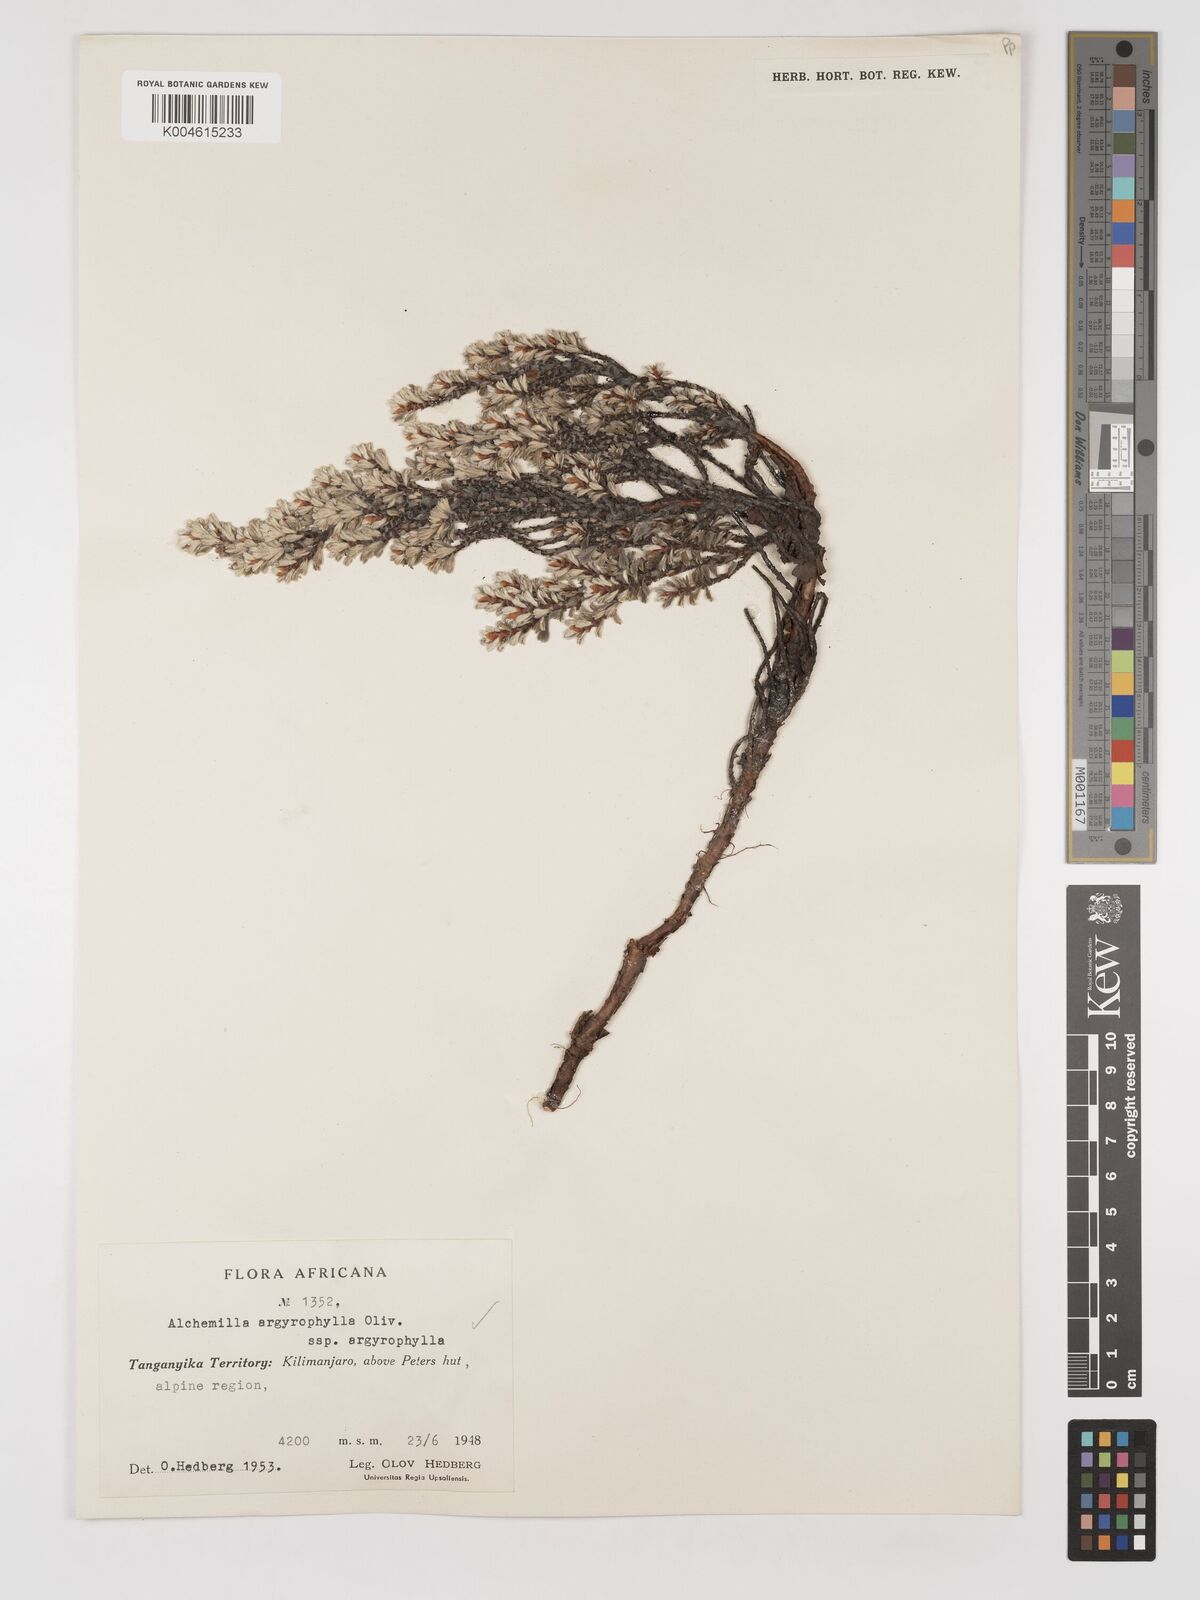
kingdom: Plantae
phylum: Tracheophyta
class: Magnoliopsida
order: Rosales
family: Rosaceae
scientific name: Rosaceae
